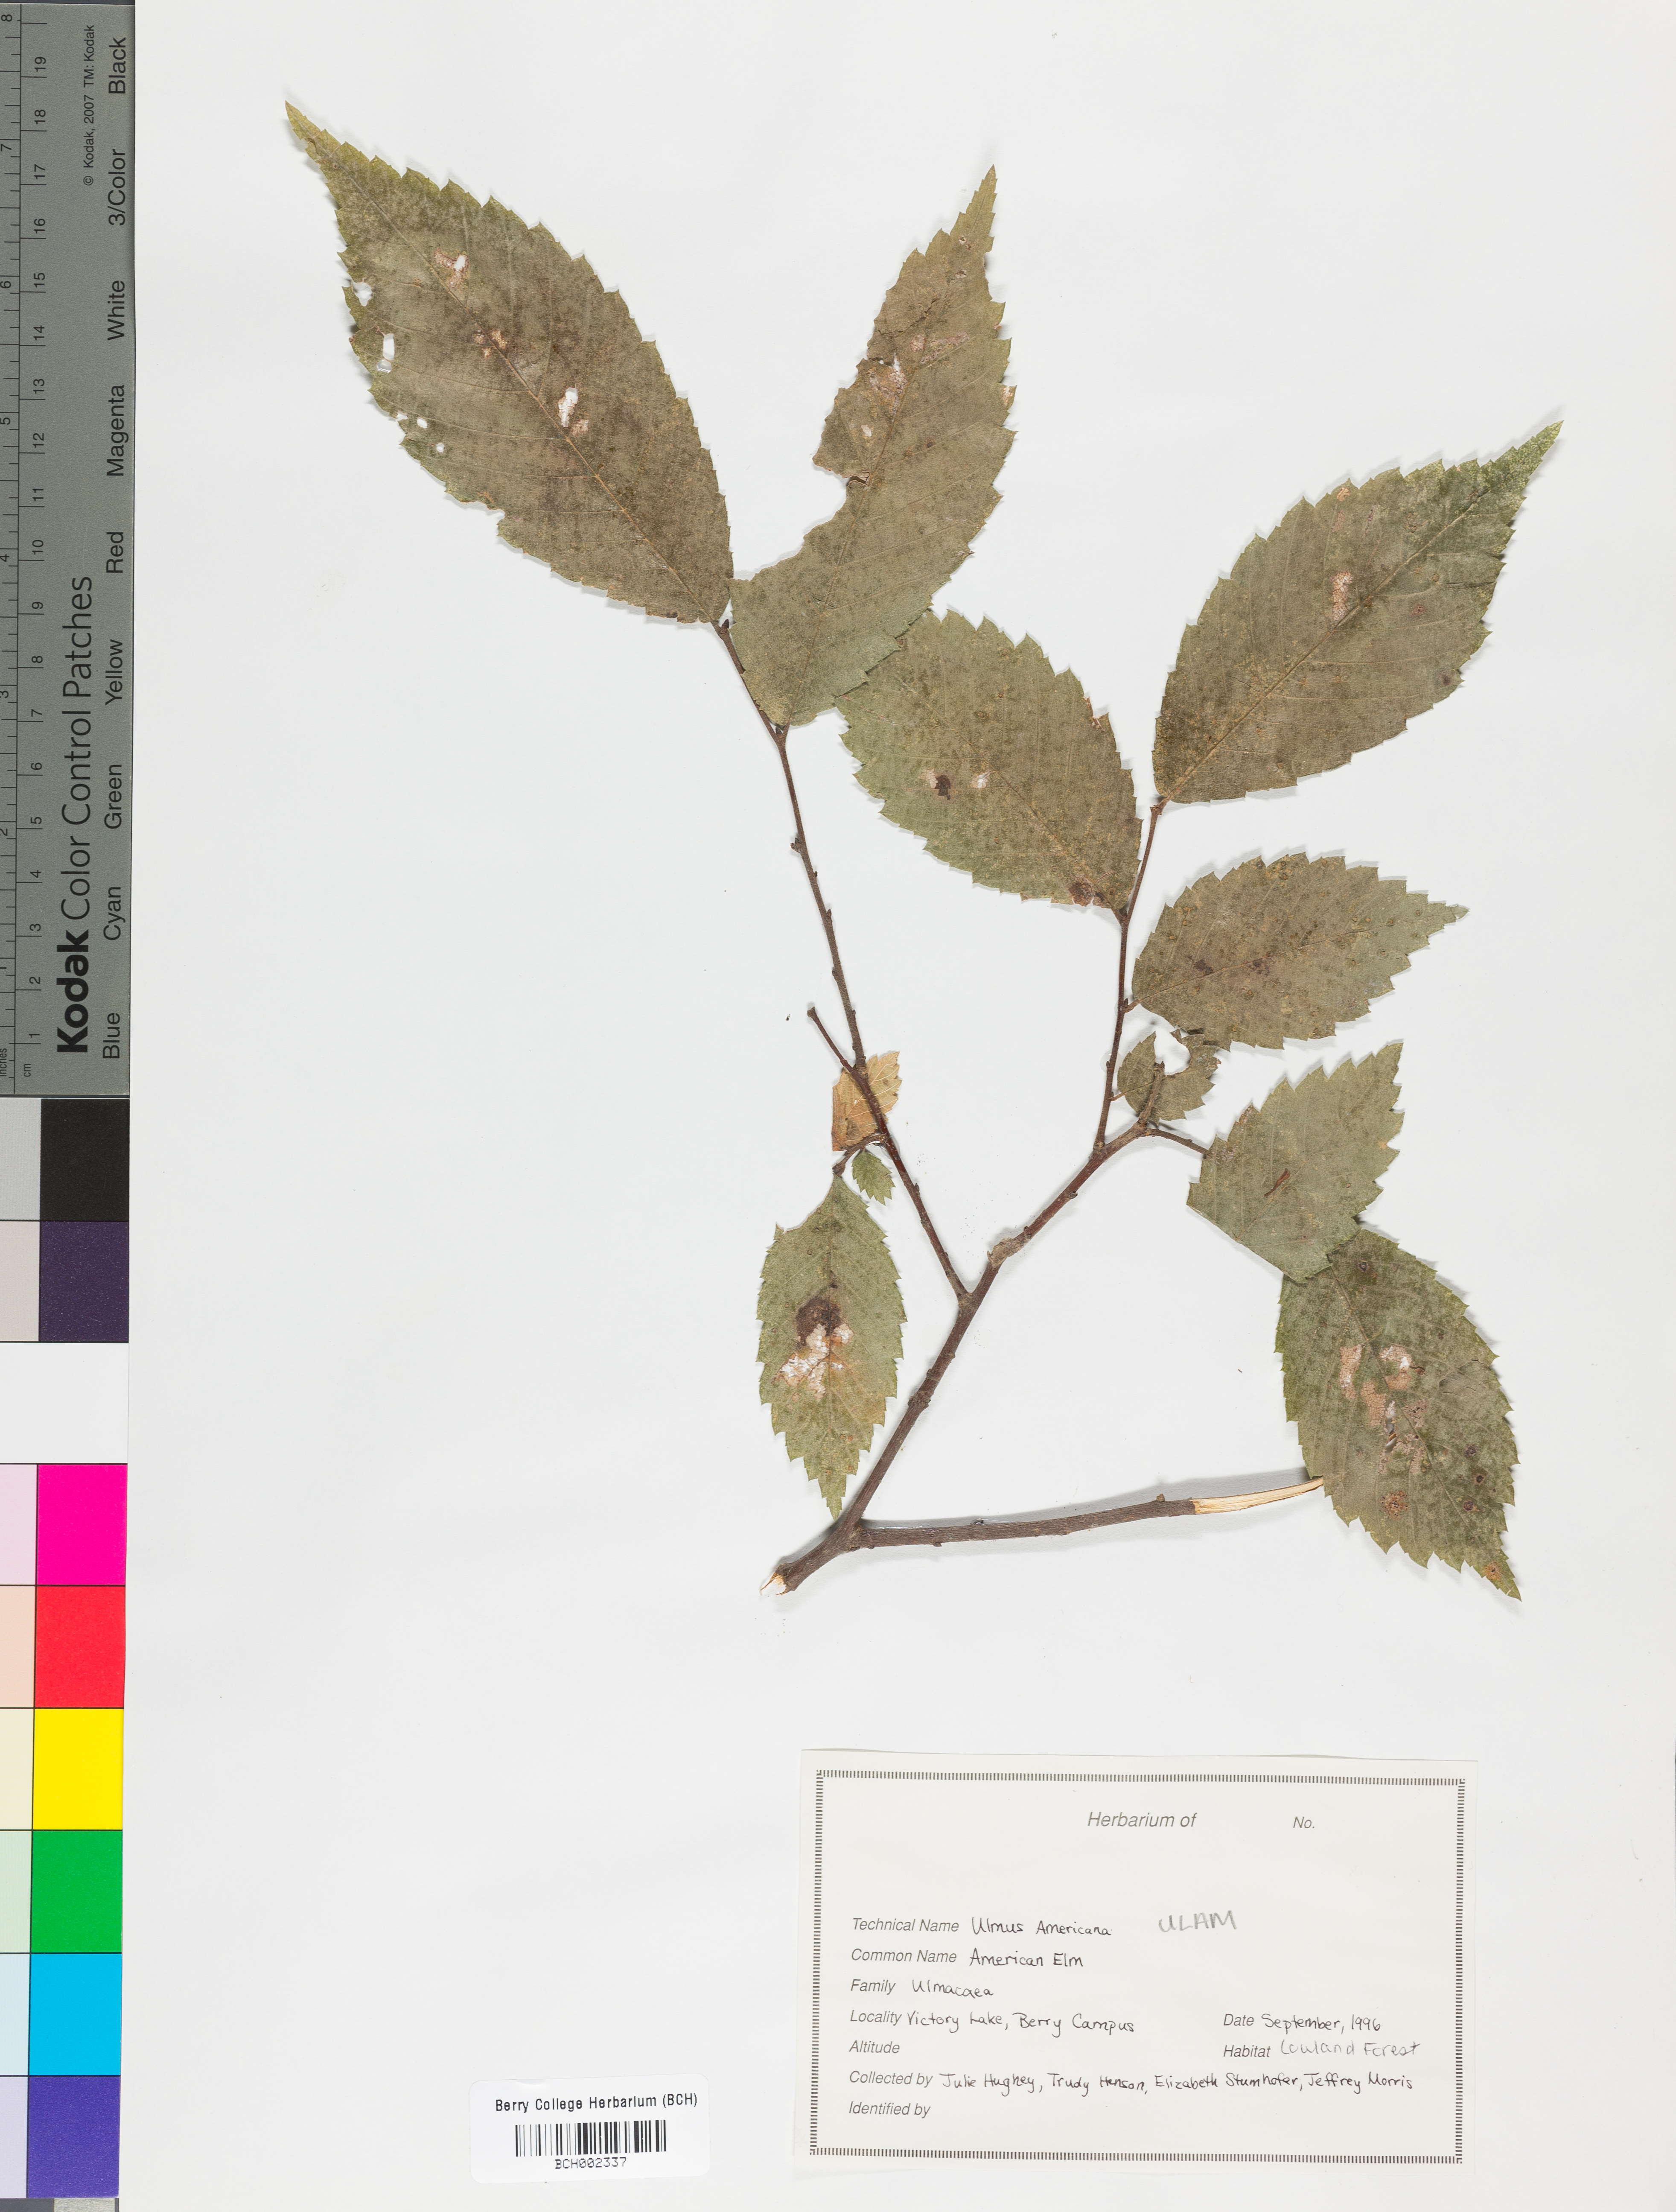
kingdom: Plantae
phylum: Tracheophyta
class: Magnoliopsida
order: Rosales
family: Ulmaceae
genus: Ulmus
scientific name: Ulmus americana
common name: American elm
